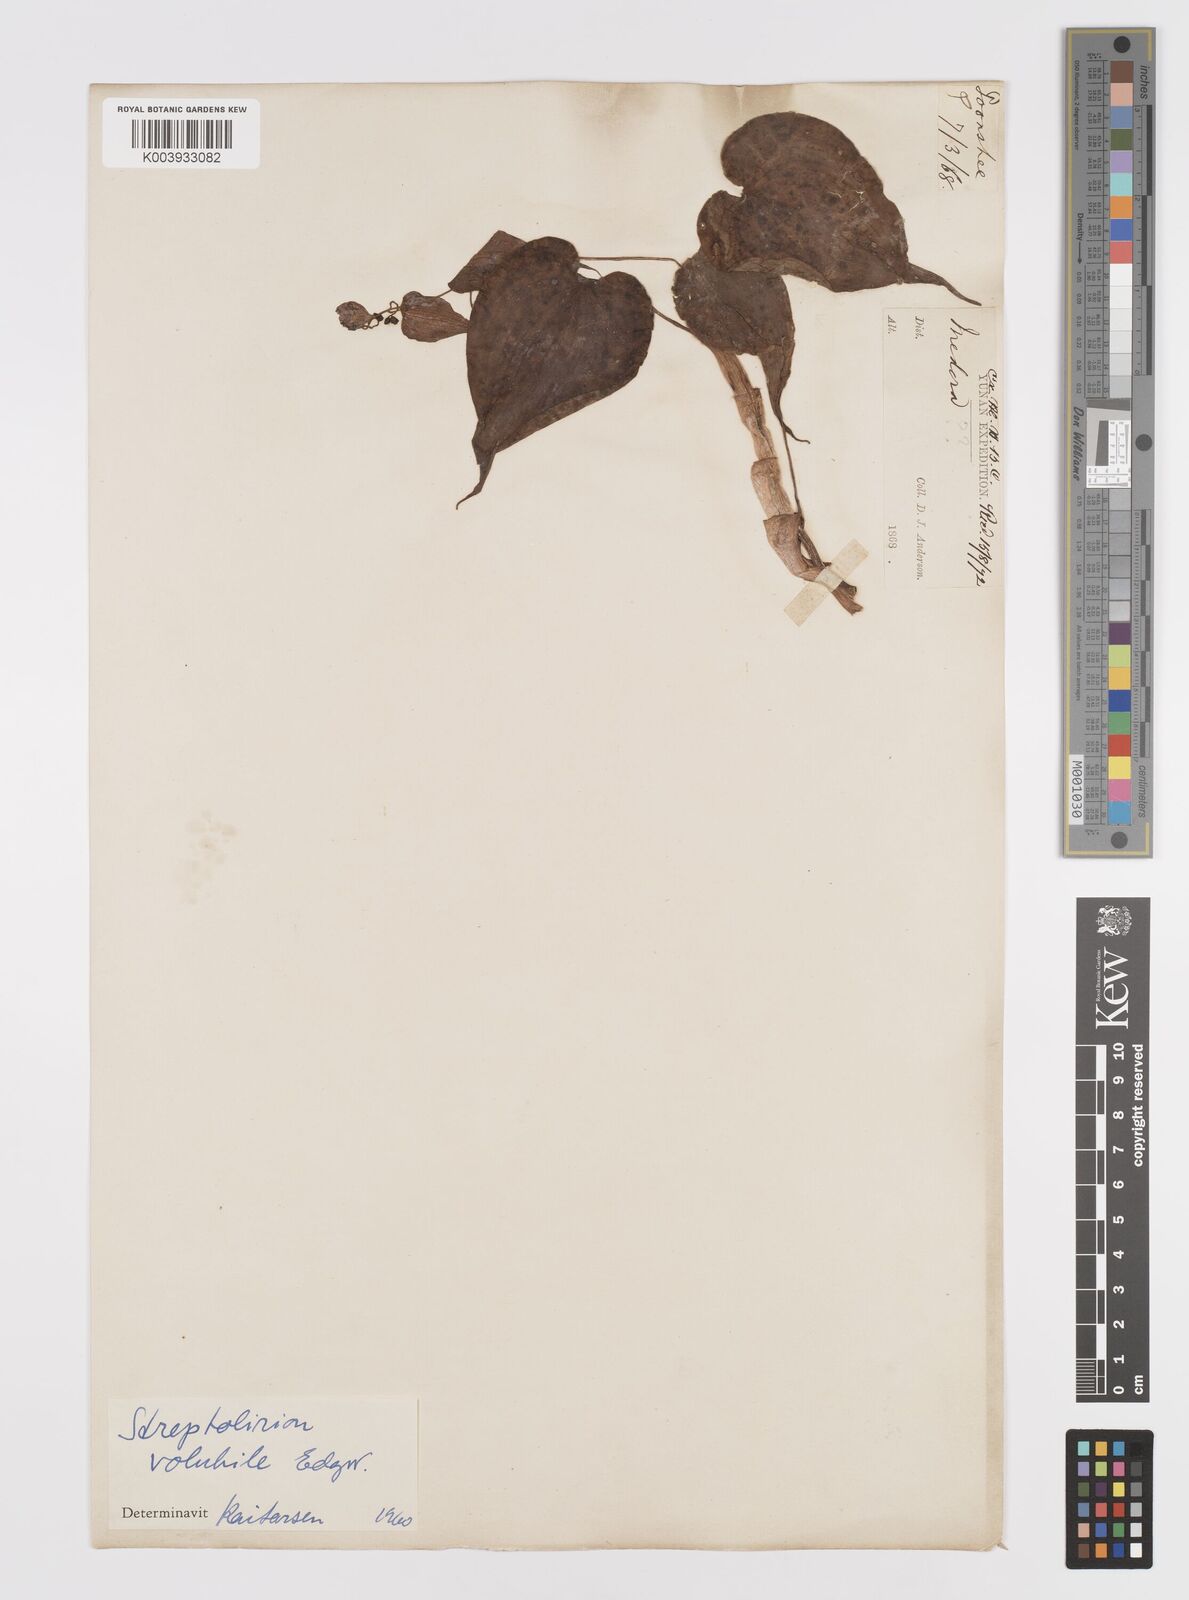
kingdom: Plantae
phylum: Tracheophyta
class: Liliopsida
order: Commelinales
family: Commelinaceae
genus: Streptolirion
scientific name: Streptolirion volubile
